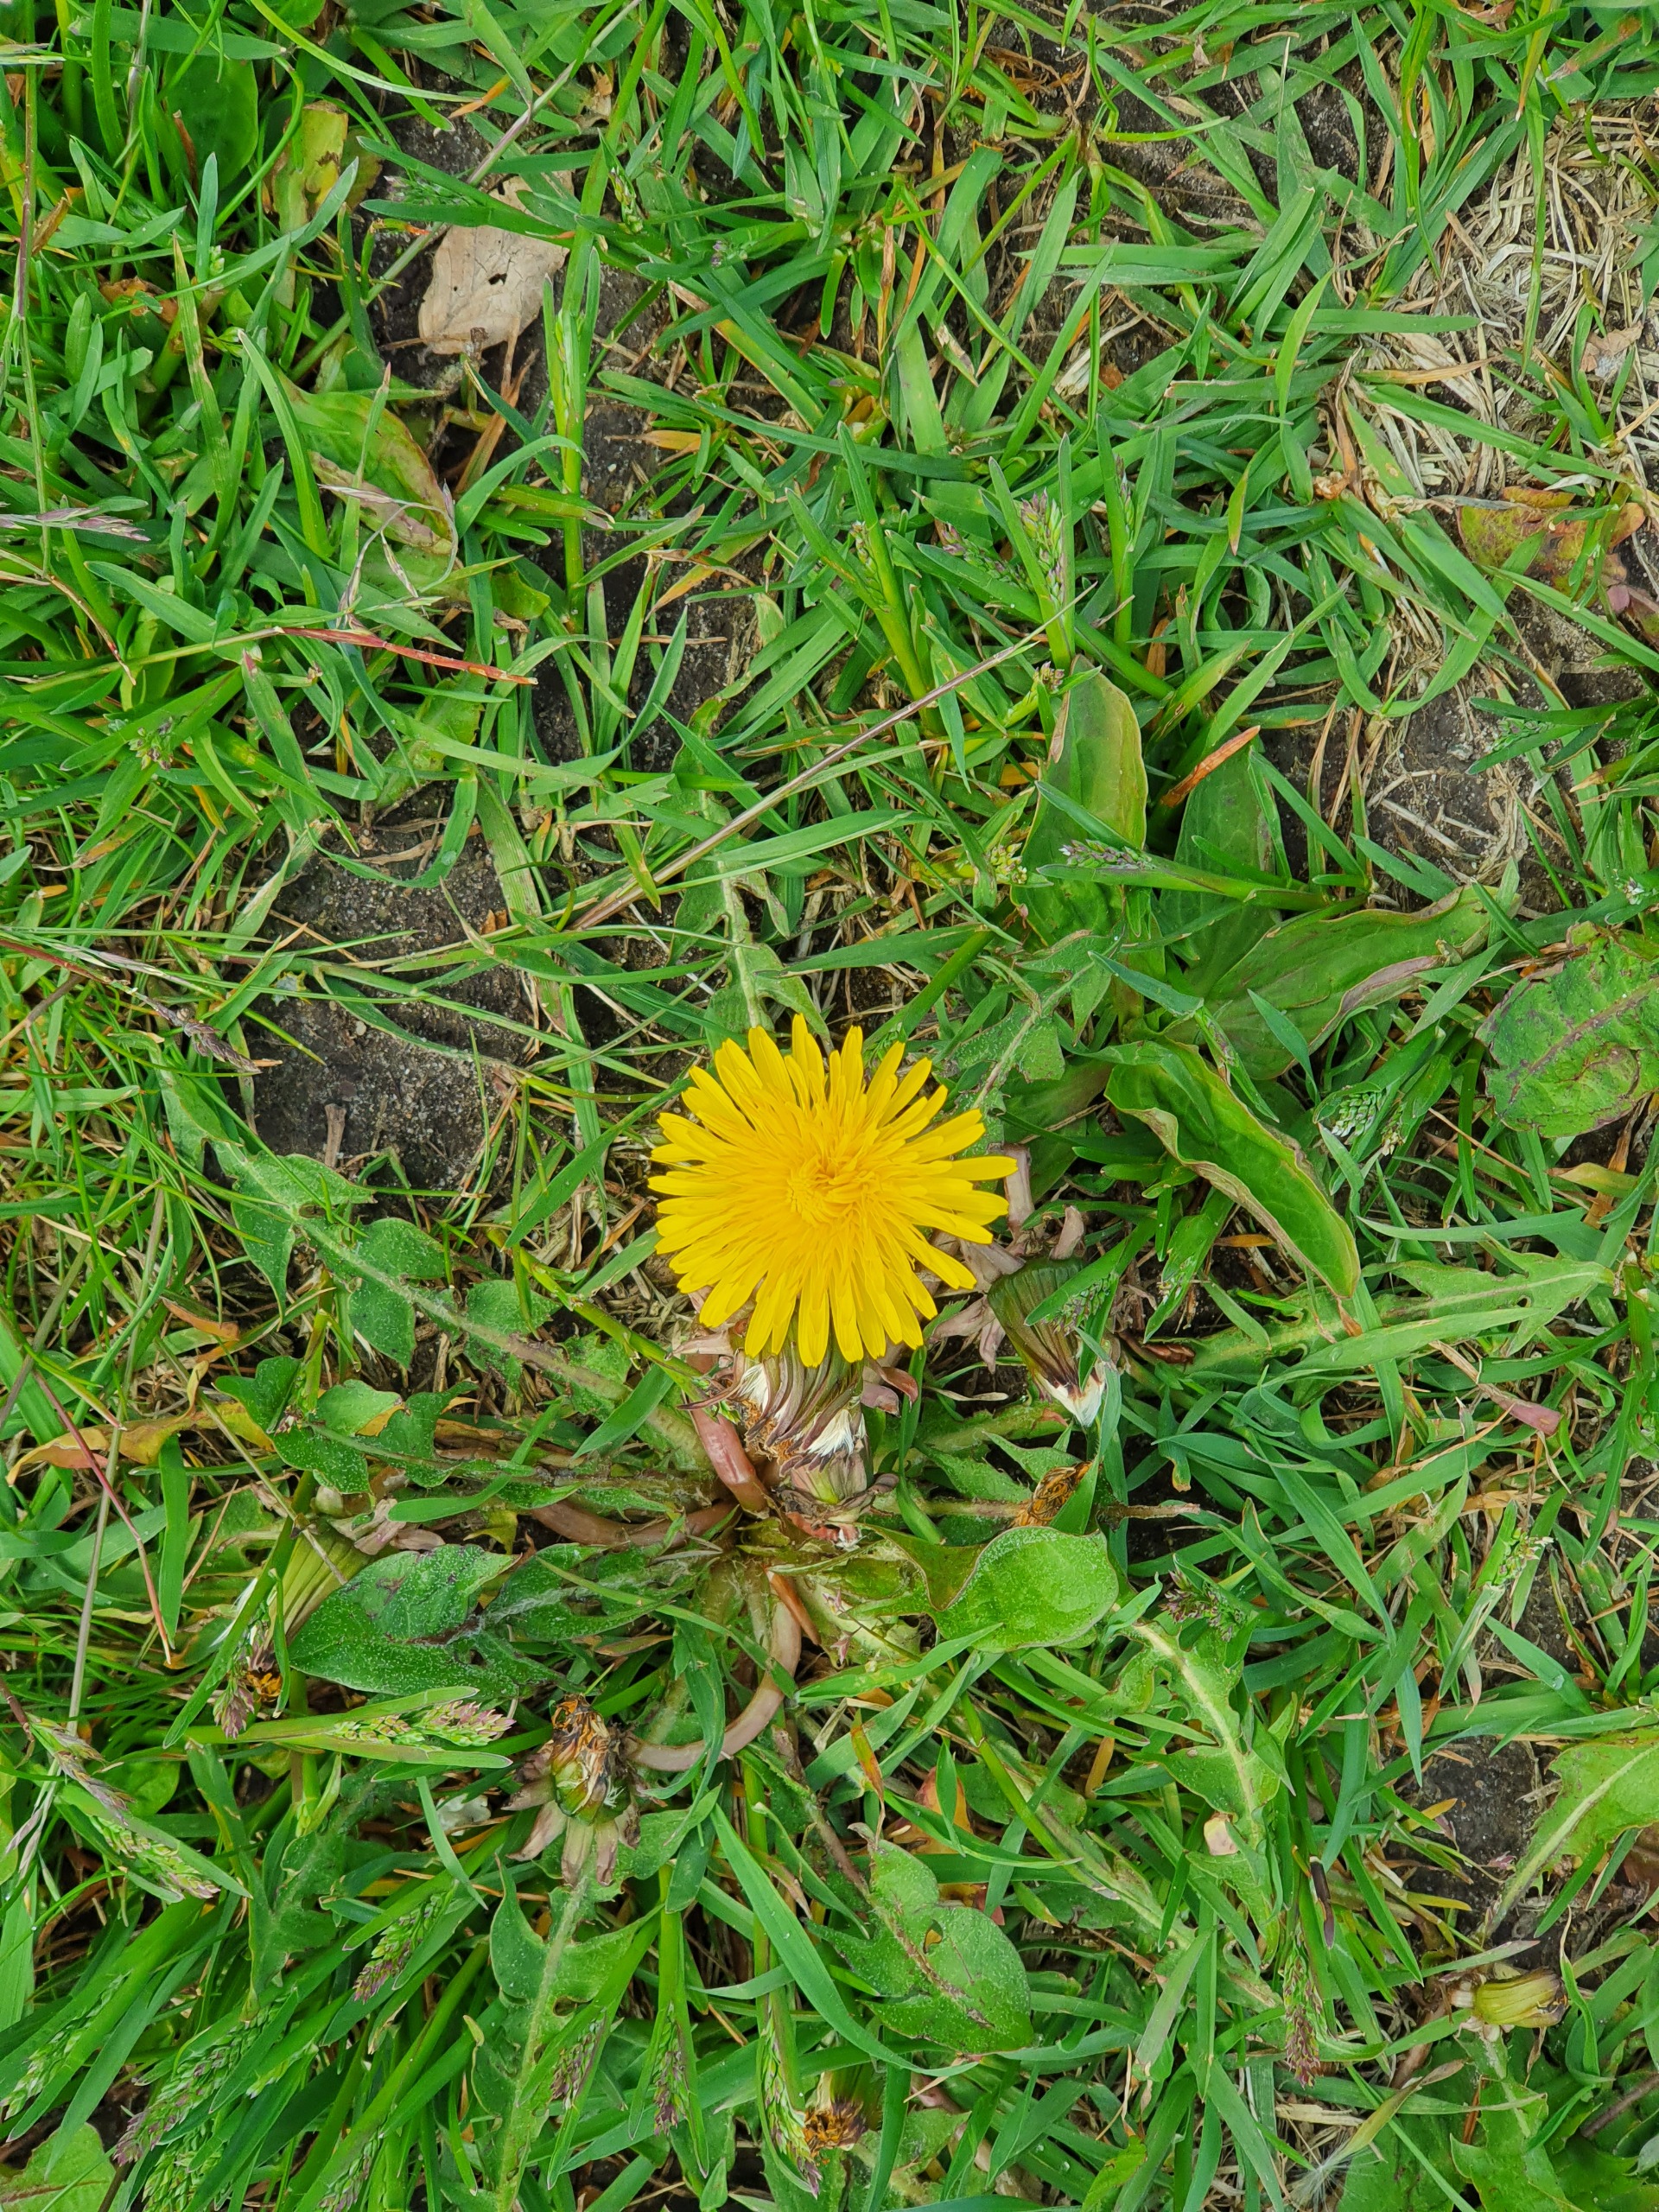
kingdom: Plantae
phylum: Tracheophyta
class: Magnoliopsida
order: Asterales
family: Asteraceae
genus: Taraxacum
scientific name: Taraxacum
